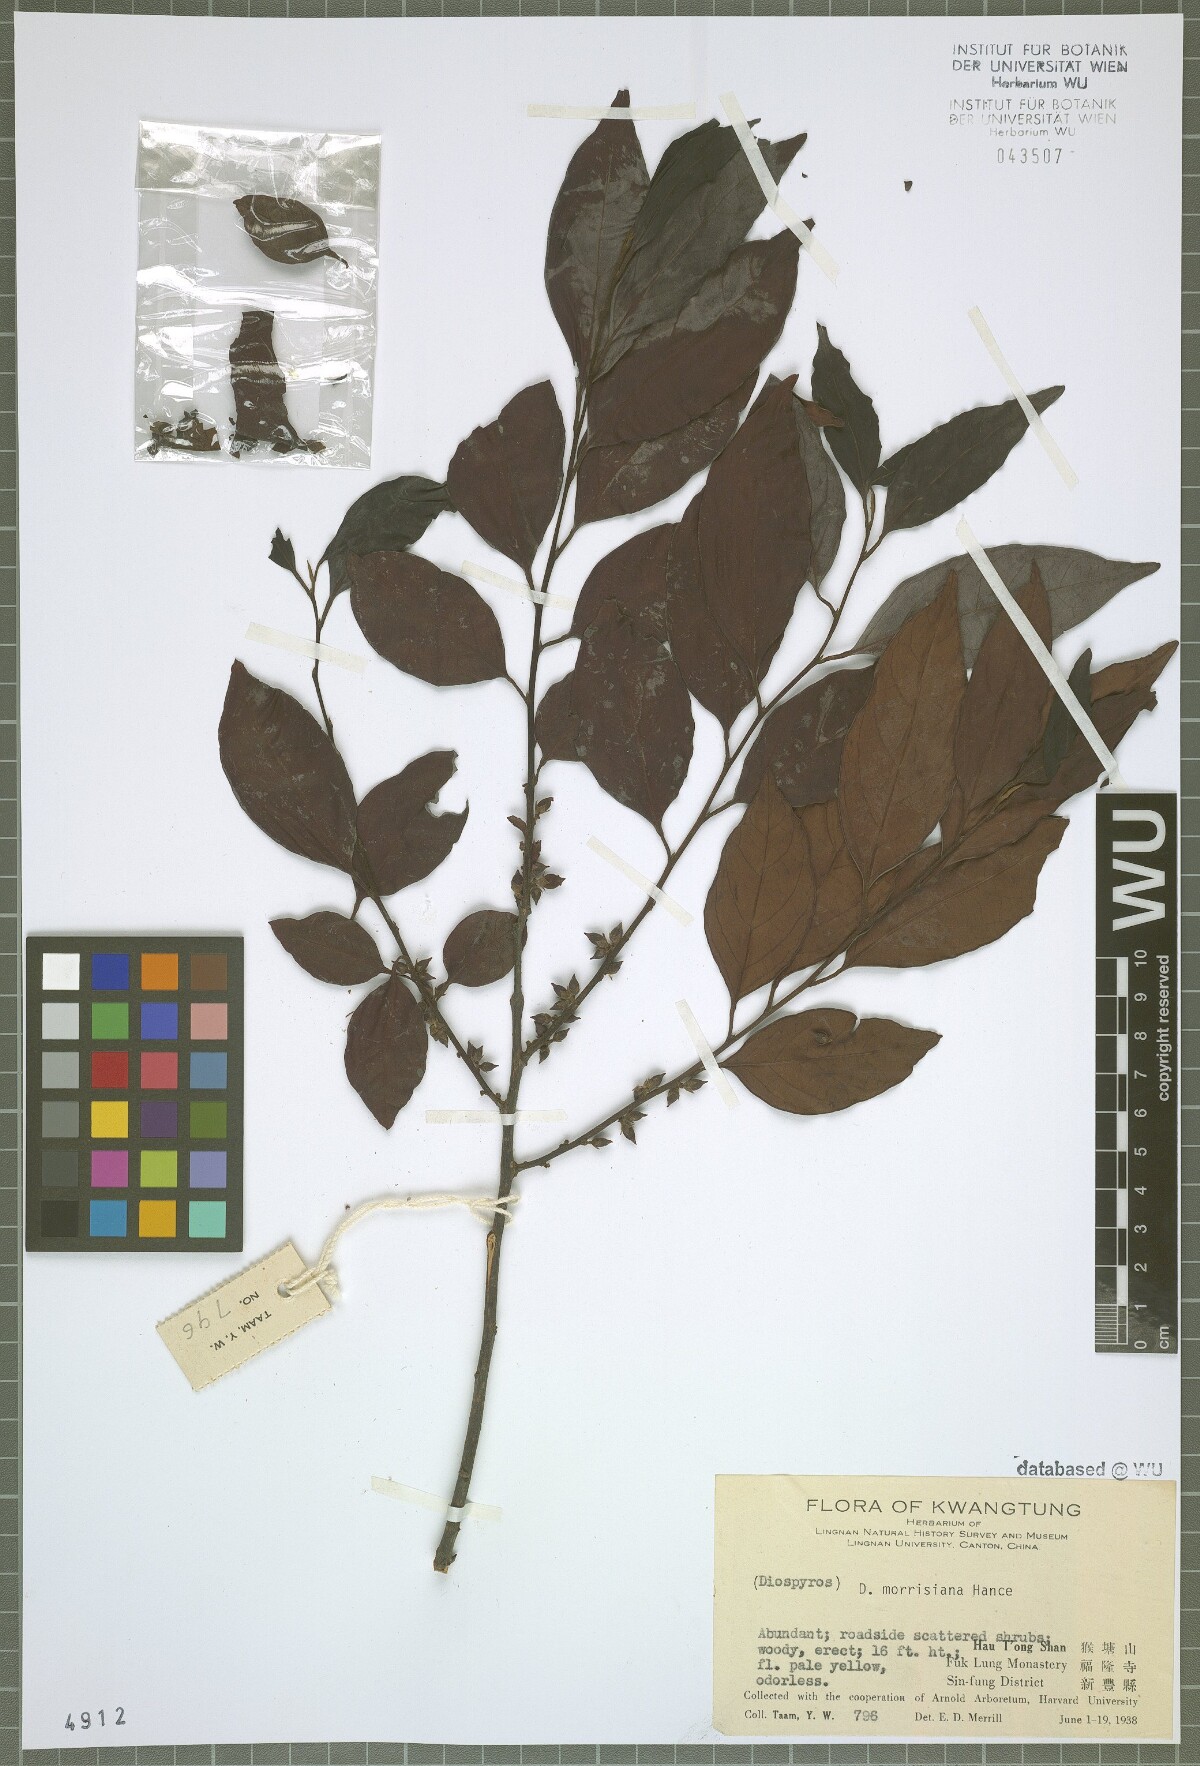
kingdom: Plantae
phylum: Tracheophyta
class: Magnoliopsida
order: Ericales
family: Ebenaceae
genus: Diospyros
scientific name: Diospyros morrisiana
